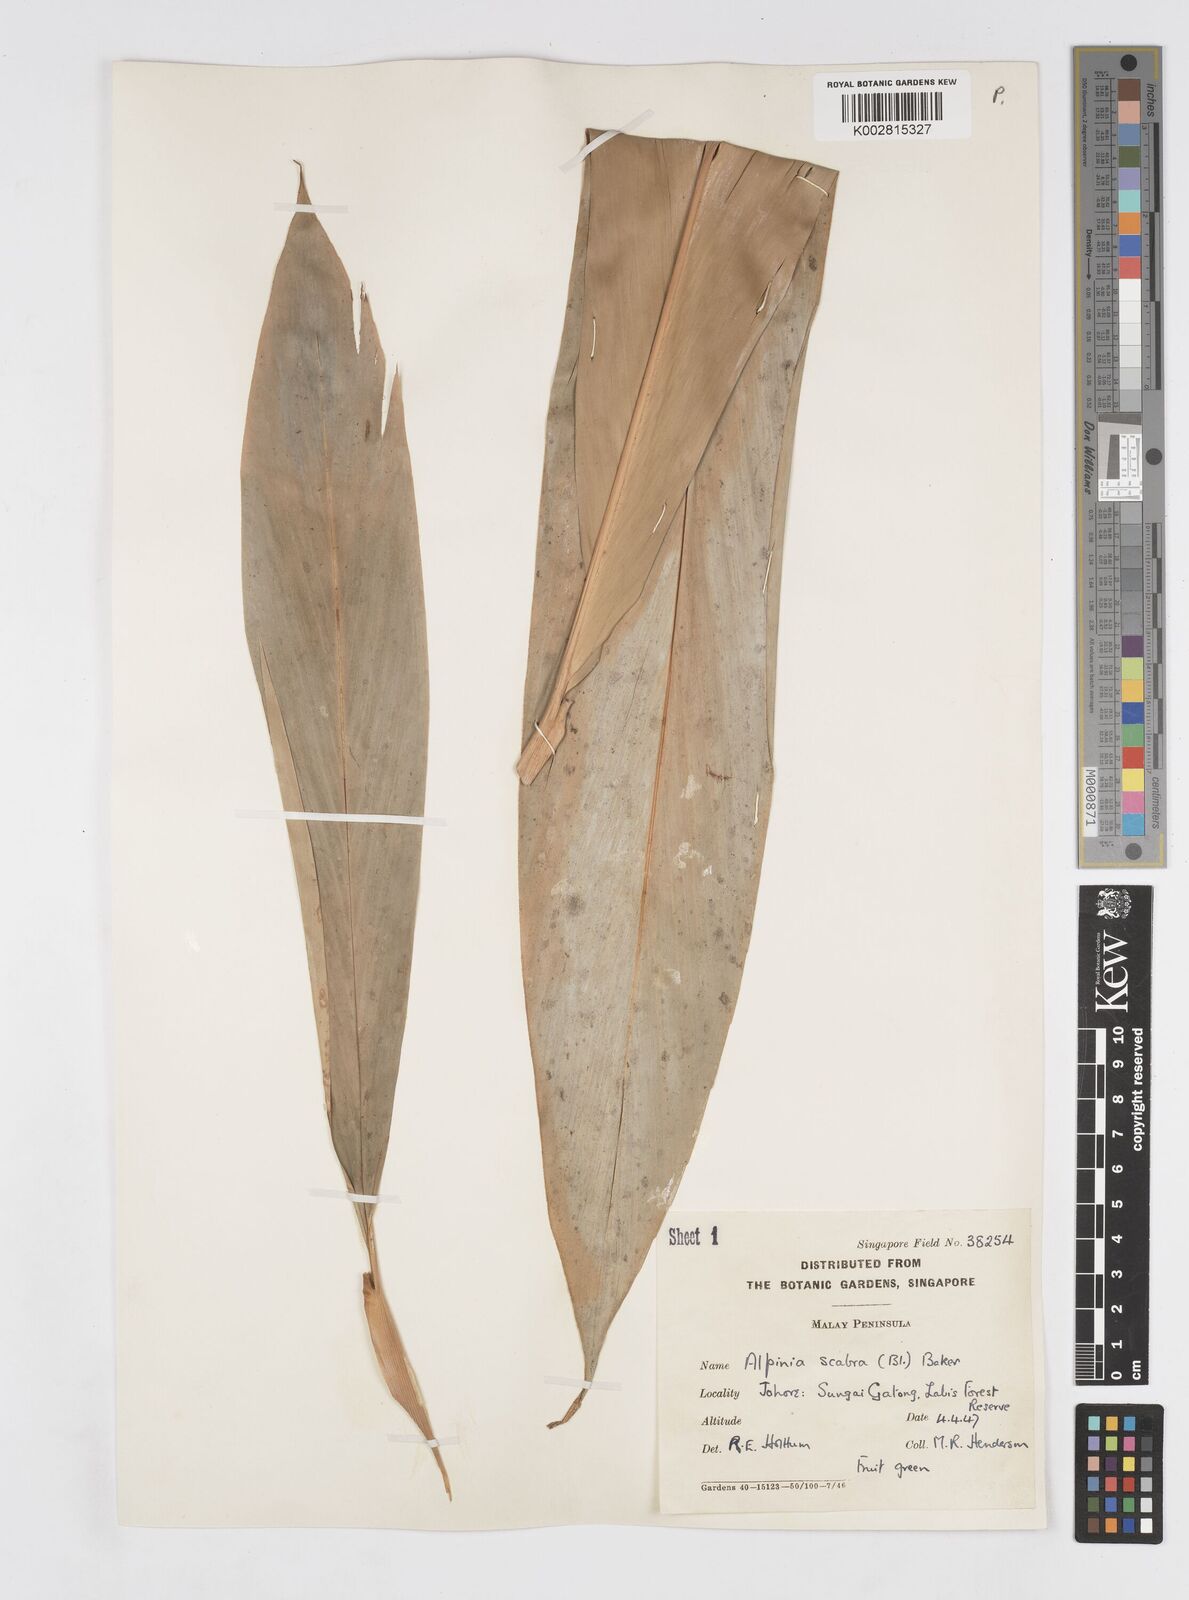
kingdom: Plantae
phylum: Tracheophyta
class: Liliopsida
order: Zingiberales
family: Zingiberaceae
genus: Alpinia
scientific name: Alpinia scabra
